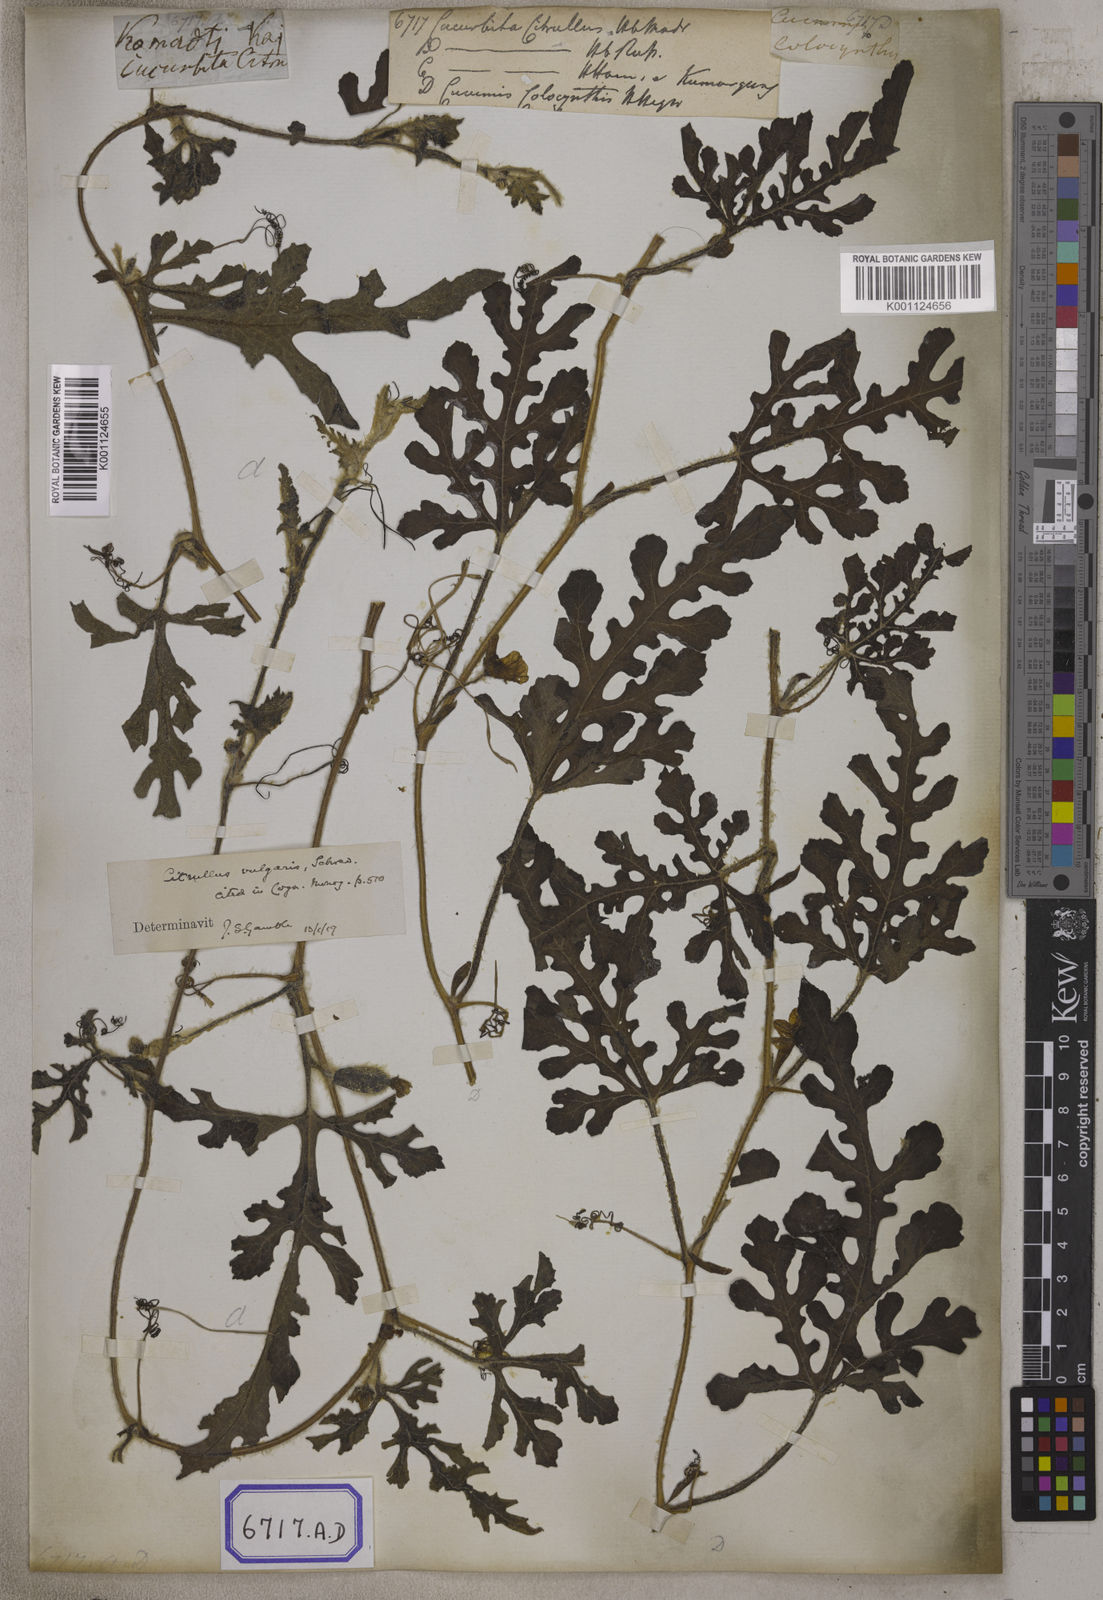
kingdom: Plantae
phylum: Tracheophyta
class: Magnoliopsida
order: Cucurbitales
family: Cucurbitaceae
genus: Citrullus
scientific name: Citrullus lanatus
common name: Watermelon
